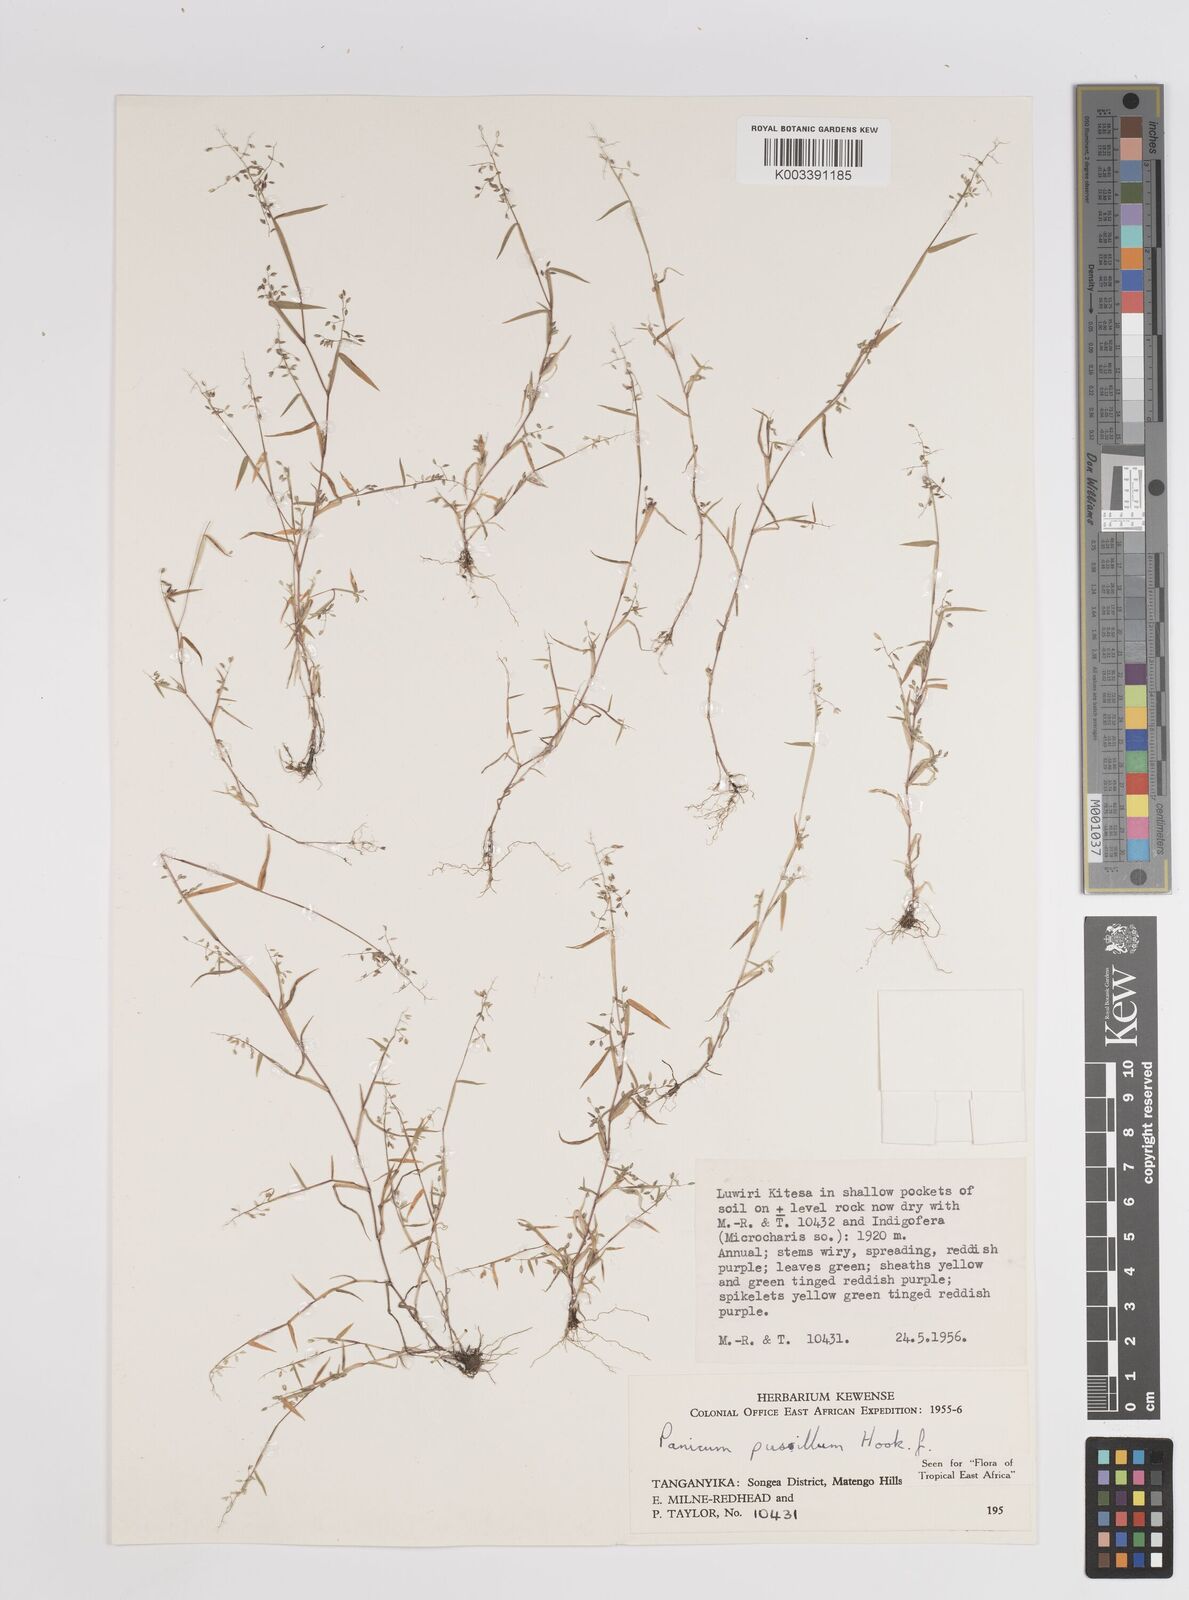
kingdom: Plantae
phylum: Tracheophyta
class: Liliopsida
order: Poales
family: Poaceae
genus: Panicum
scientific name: Panicum pusillum
